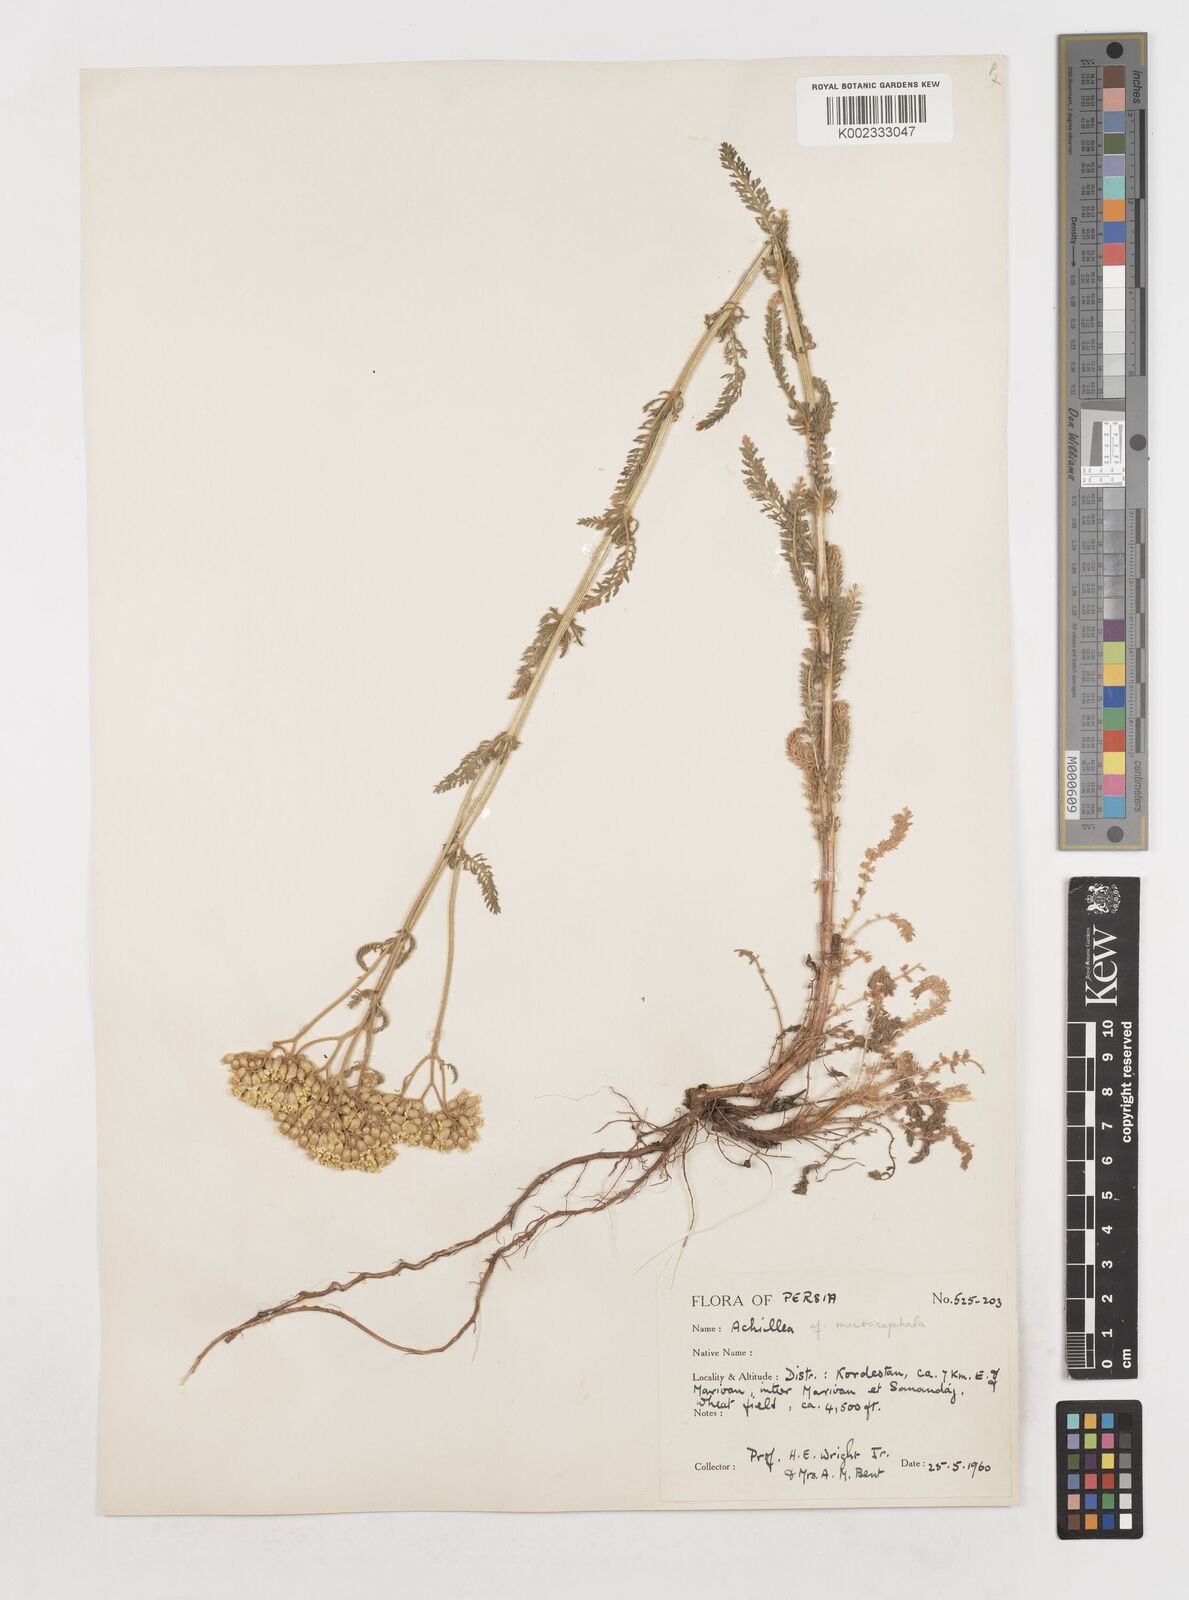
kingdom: Plantae
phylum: Tracheophyta
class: Magnoliopsida
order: Asterales
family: Asteraceae
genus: Achillea
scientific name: Achillea
